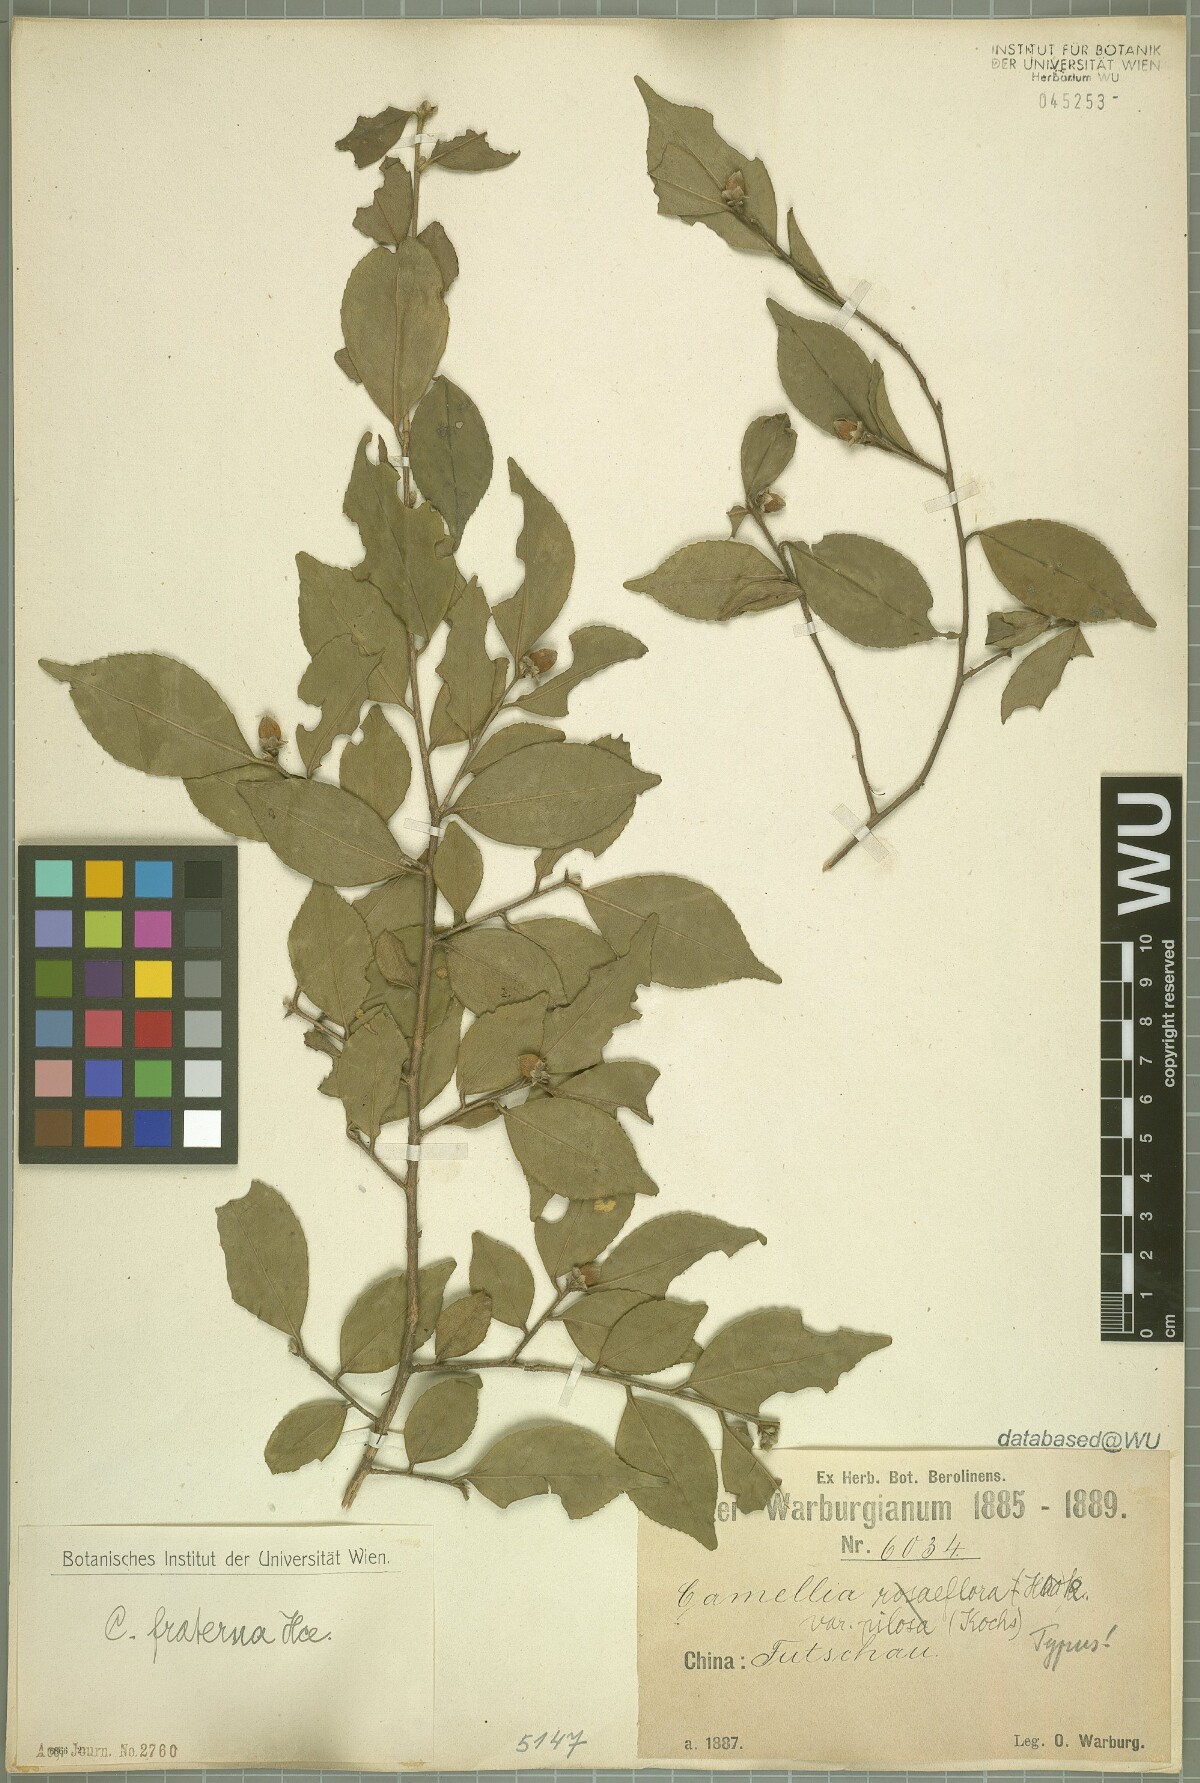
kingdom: Plantae
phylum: Tracheophyta
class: Magnoliopsida
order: Ericales
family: Theaceae
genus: Camellia
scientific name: Camellia fraterna
